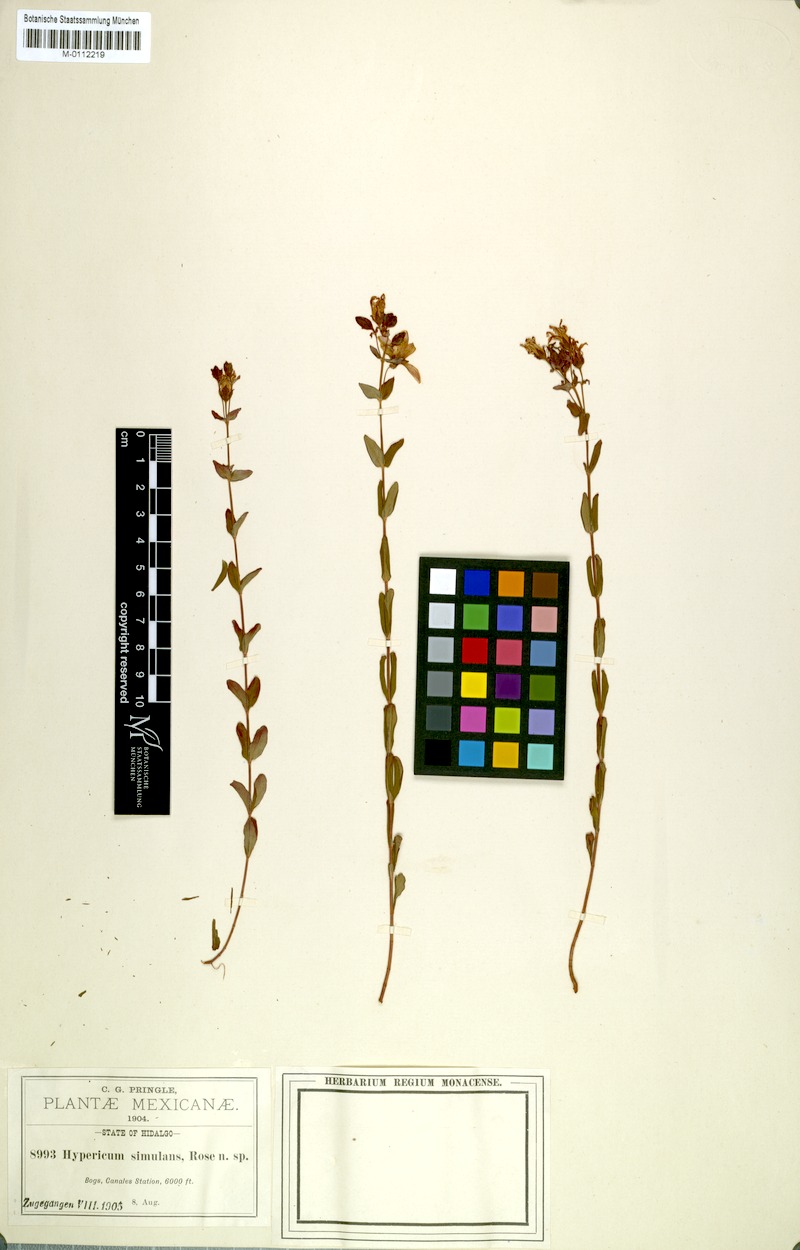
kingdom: Plantae
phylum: Tracheophyta
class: Magnoliopsida
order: Malpighiales
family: Hypericaceae
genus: Hypericum
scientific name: Hypericum formosum
